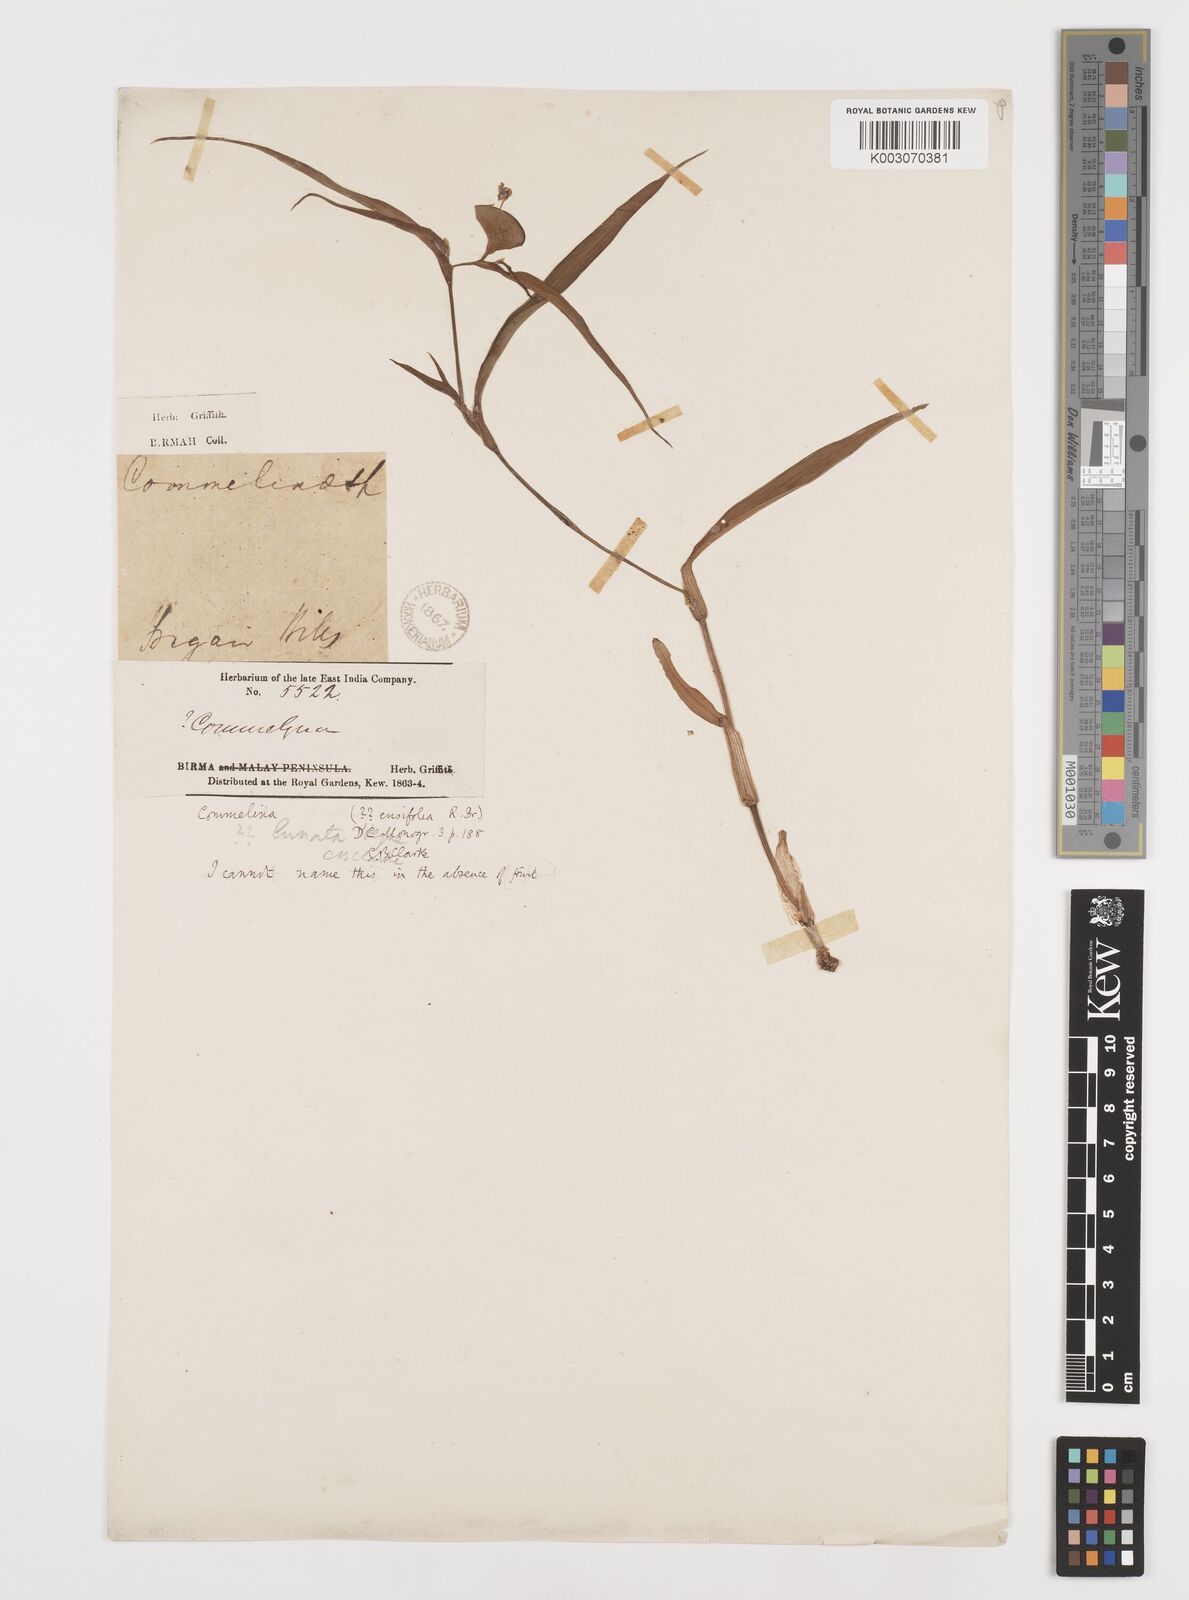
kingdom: Plantae
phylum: Tracheophyta
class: Liliopsida
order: Commelinales
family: Commelinaceae
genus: Commelina
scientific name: Commelina ensifolia
